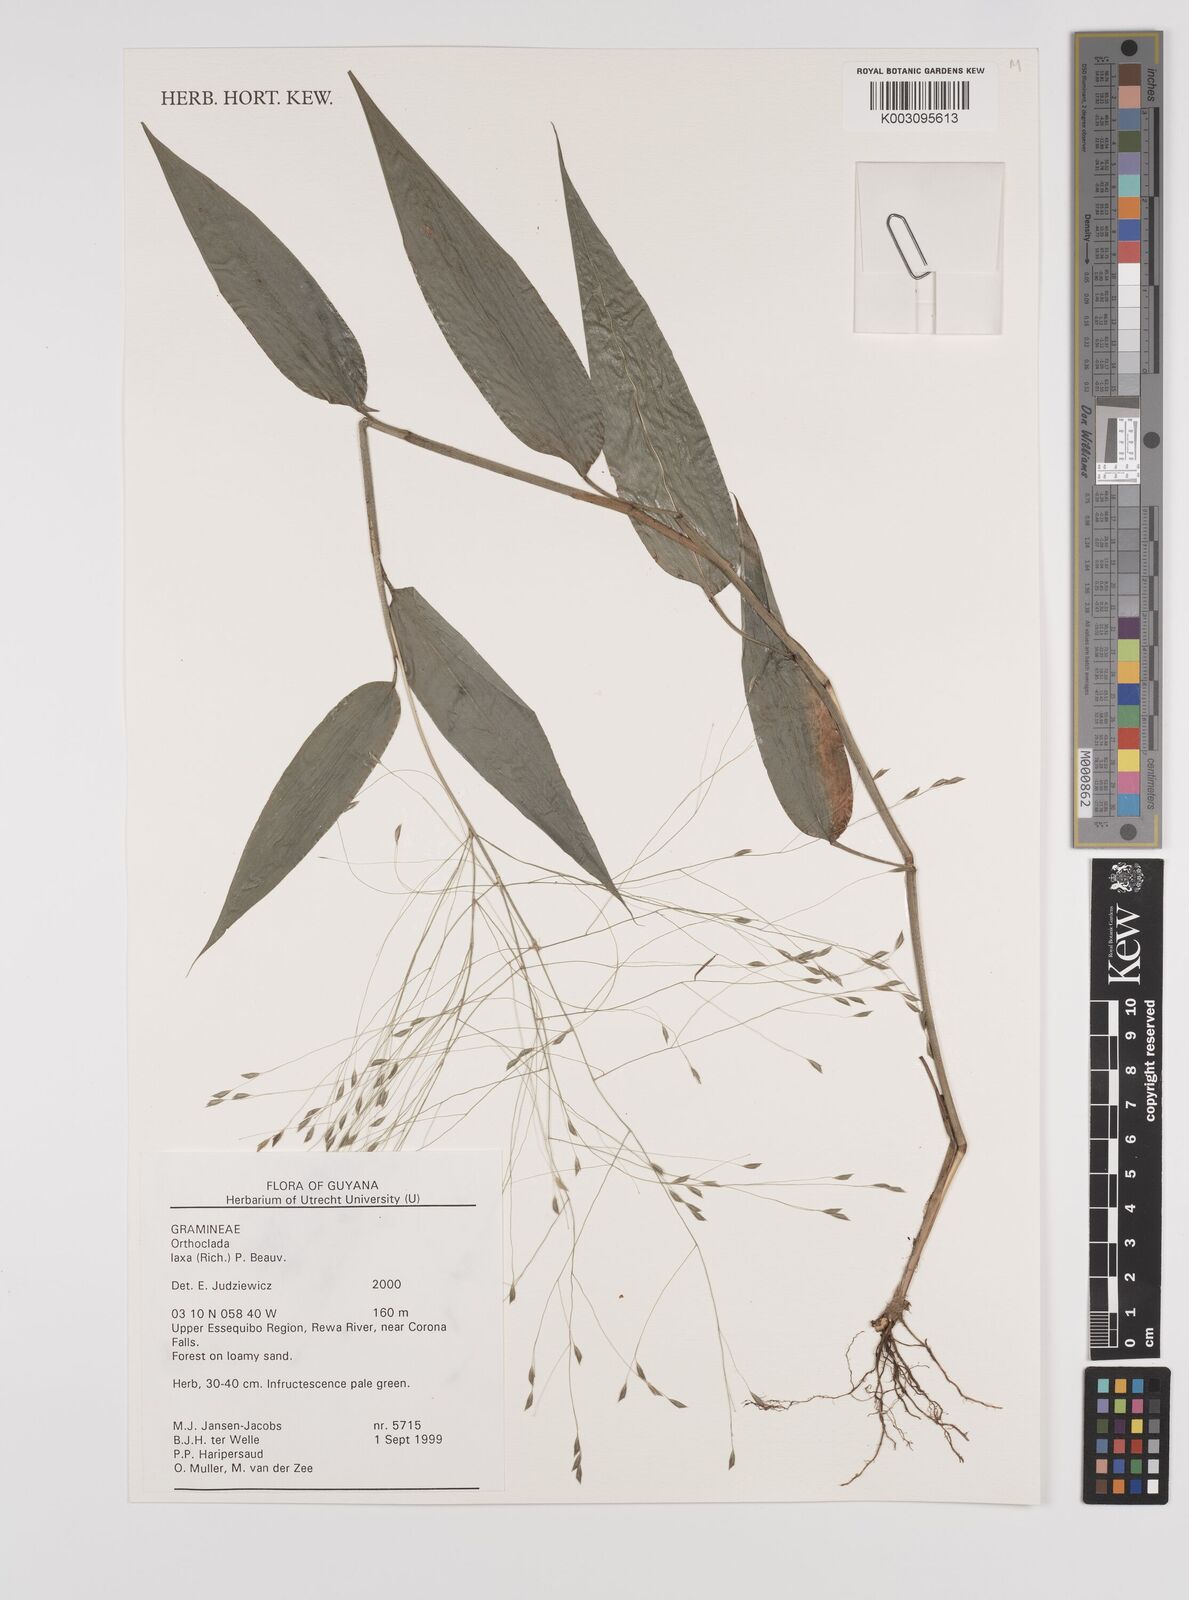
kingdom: Plantae
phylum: Tracheophyta
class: Liliopsida
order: Poales
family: Poaceae
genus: Orthoclada
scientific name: Orthoclada laxa
